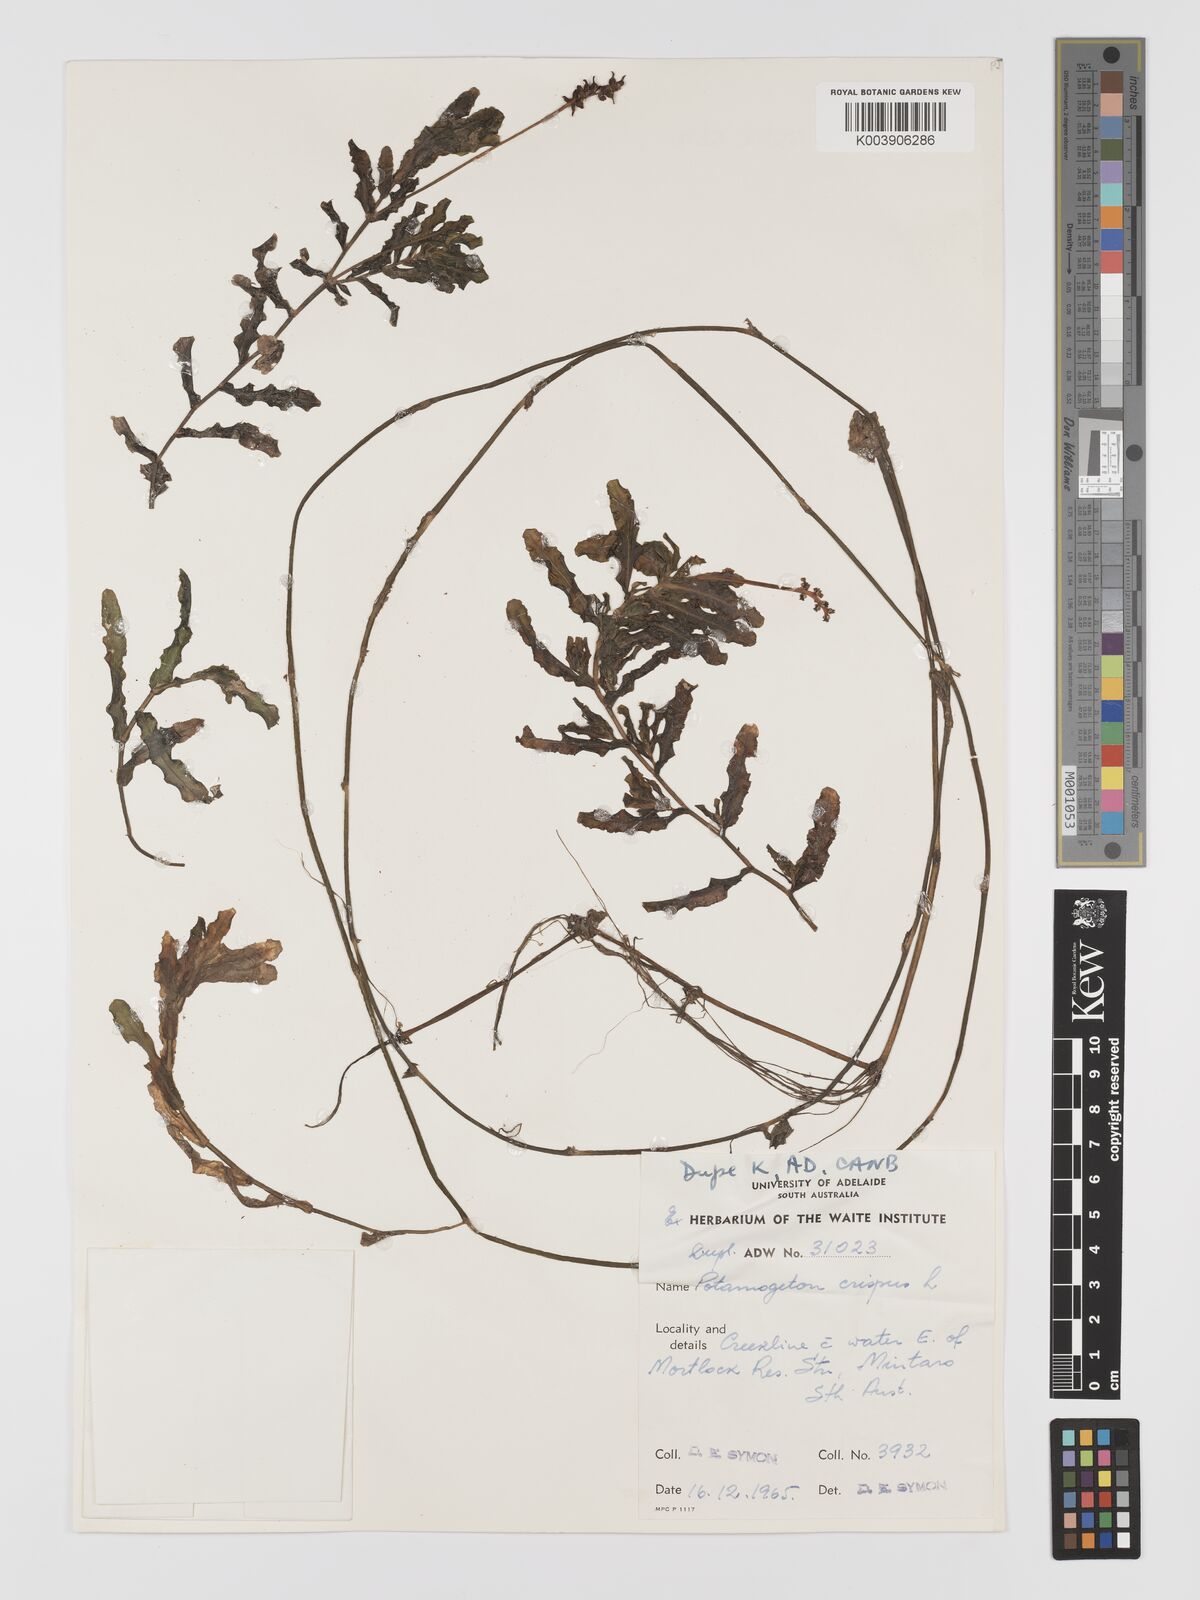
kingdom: Plantae
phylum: Tracheophyta
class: Liliopsida
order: Alismatales
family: Potamogetonaceae
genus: Potamogeton
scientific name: Potamogeton crispus
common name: Curled pondweed
